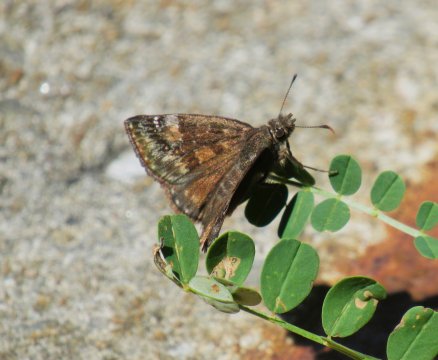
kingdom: Animalia
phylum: Arthropoda
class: Insecta
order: Lepidoptera
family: Hesperiidae
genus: Gesta
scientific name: Gesta
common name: Horace's Duskywing
